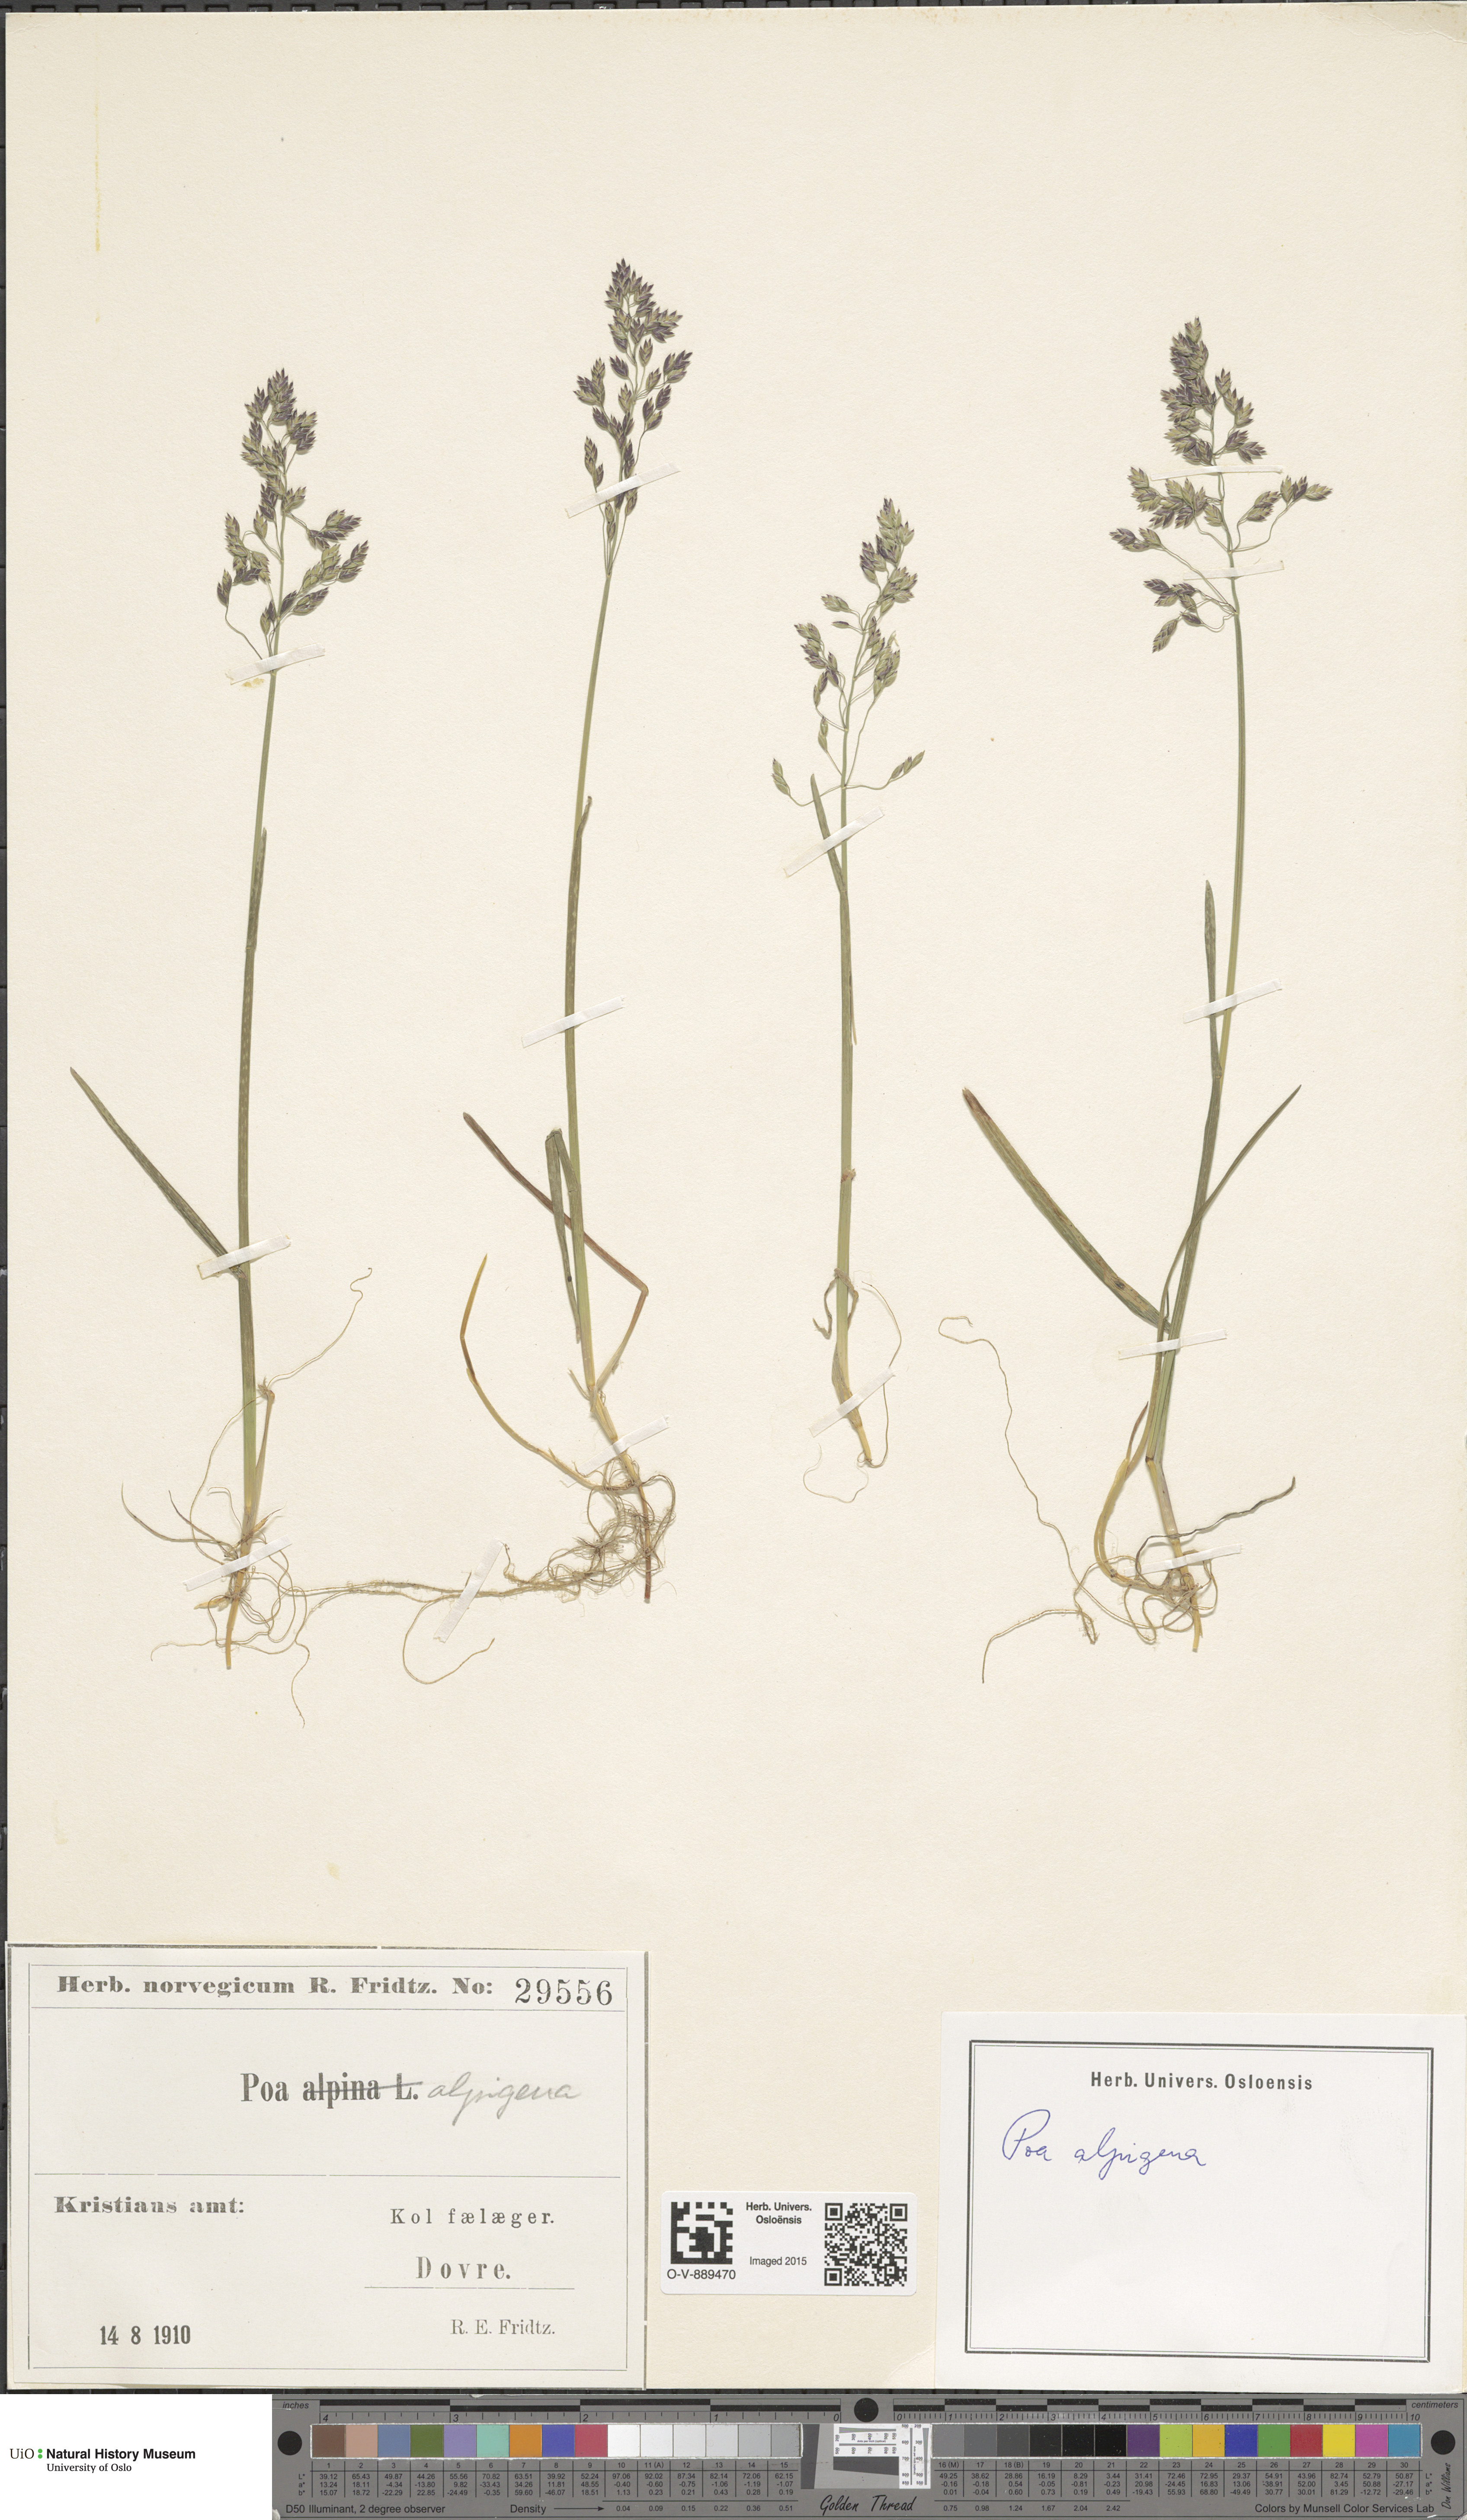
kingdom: Plantae
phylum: Tracheophyta
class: Liliopsida
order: Poales
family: Poaceae
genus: Poa
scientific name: Poa alpigena
